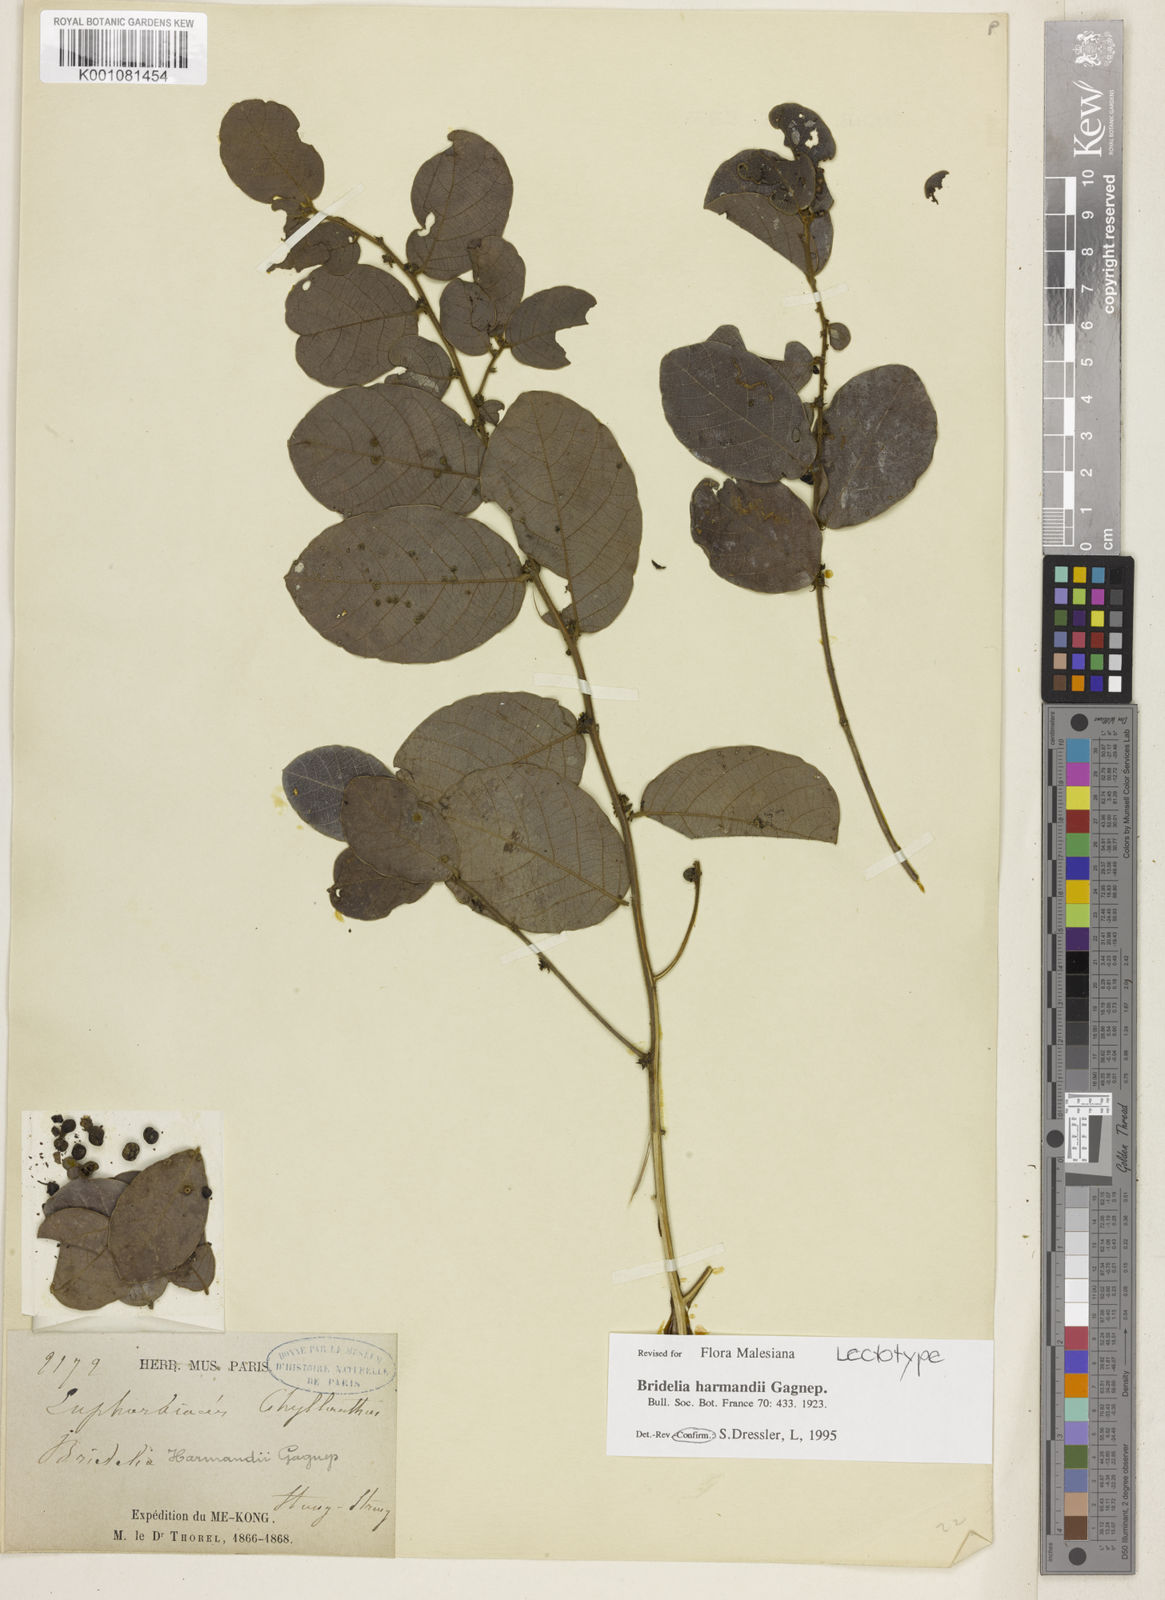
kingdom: Plantae
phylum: Tracheophyta
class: Magnoliopsida
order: Malpighiales
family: Phyllanthaceae
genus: Bridelia
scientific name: Bridelia harmandii
